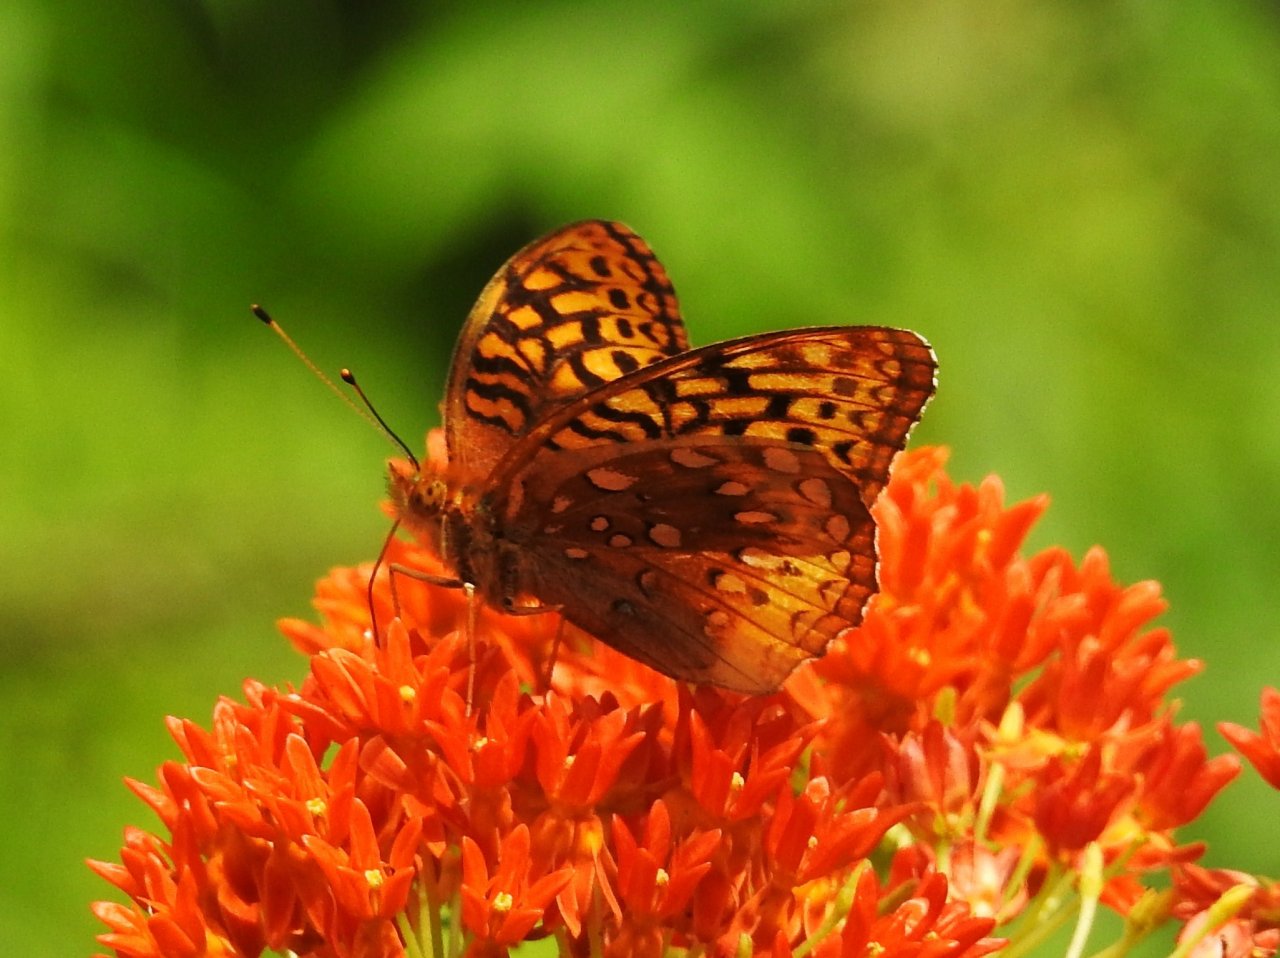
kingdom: Animalia
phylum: Arthropoda
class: Insecta
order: Lepidoptera
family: Nymphalidae
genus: Speyeria
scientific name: Speyeria cybele
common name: Great Spangled Fritillary
